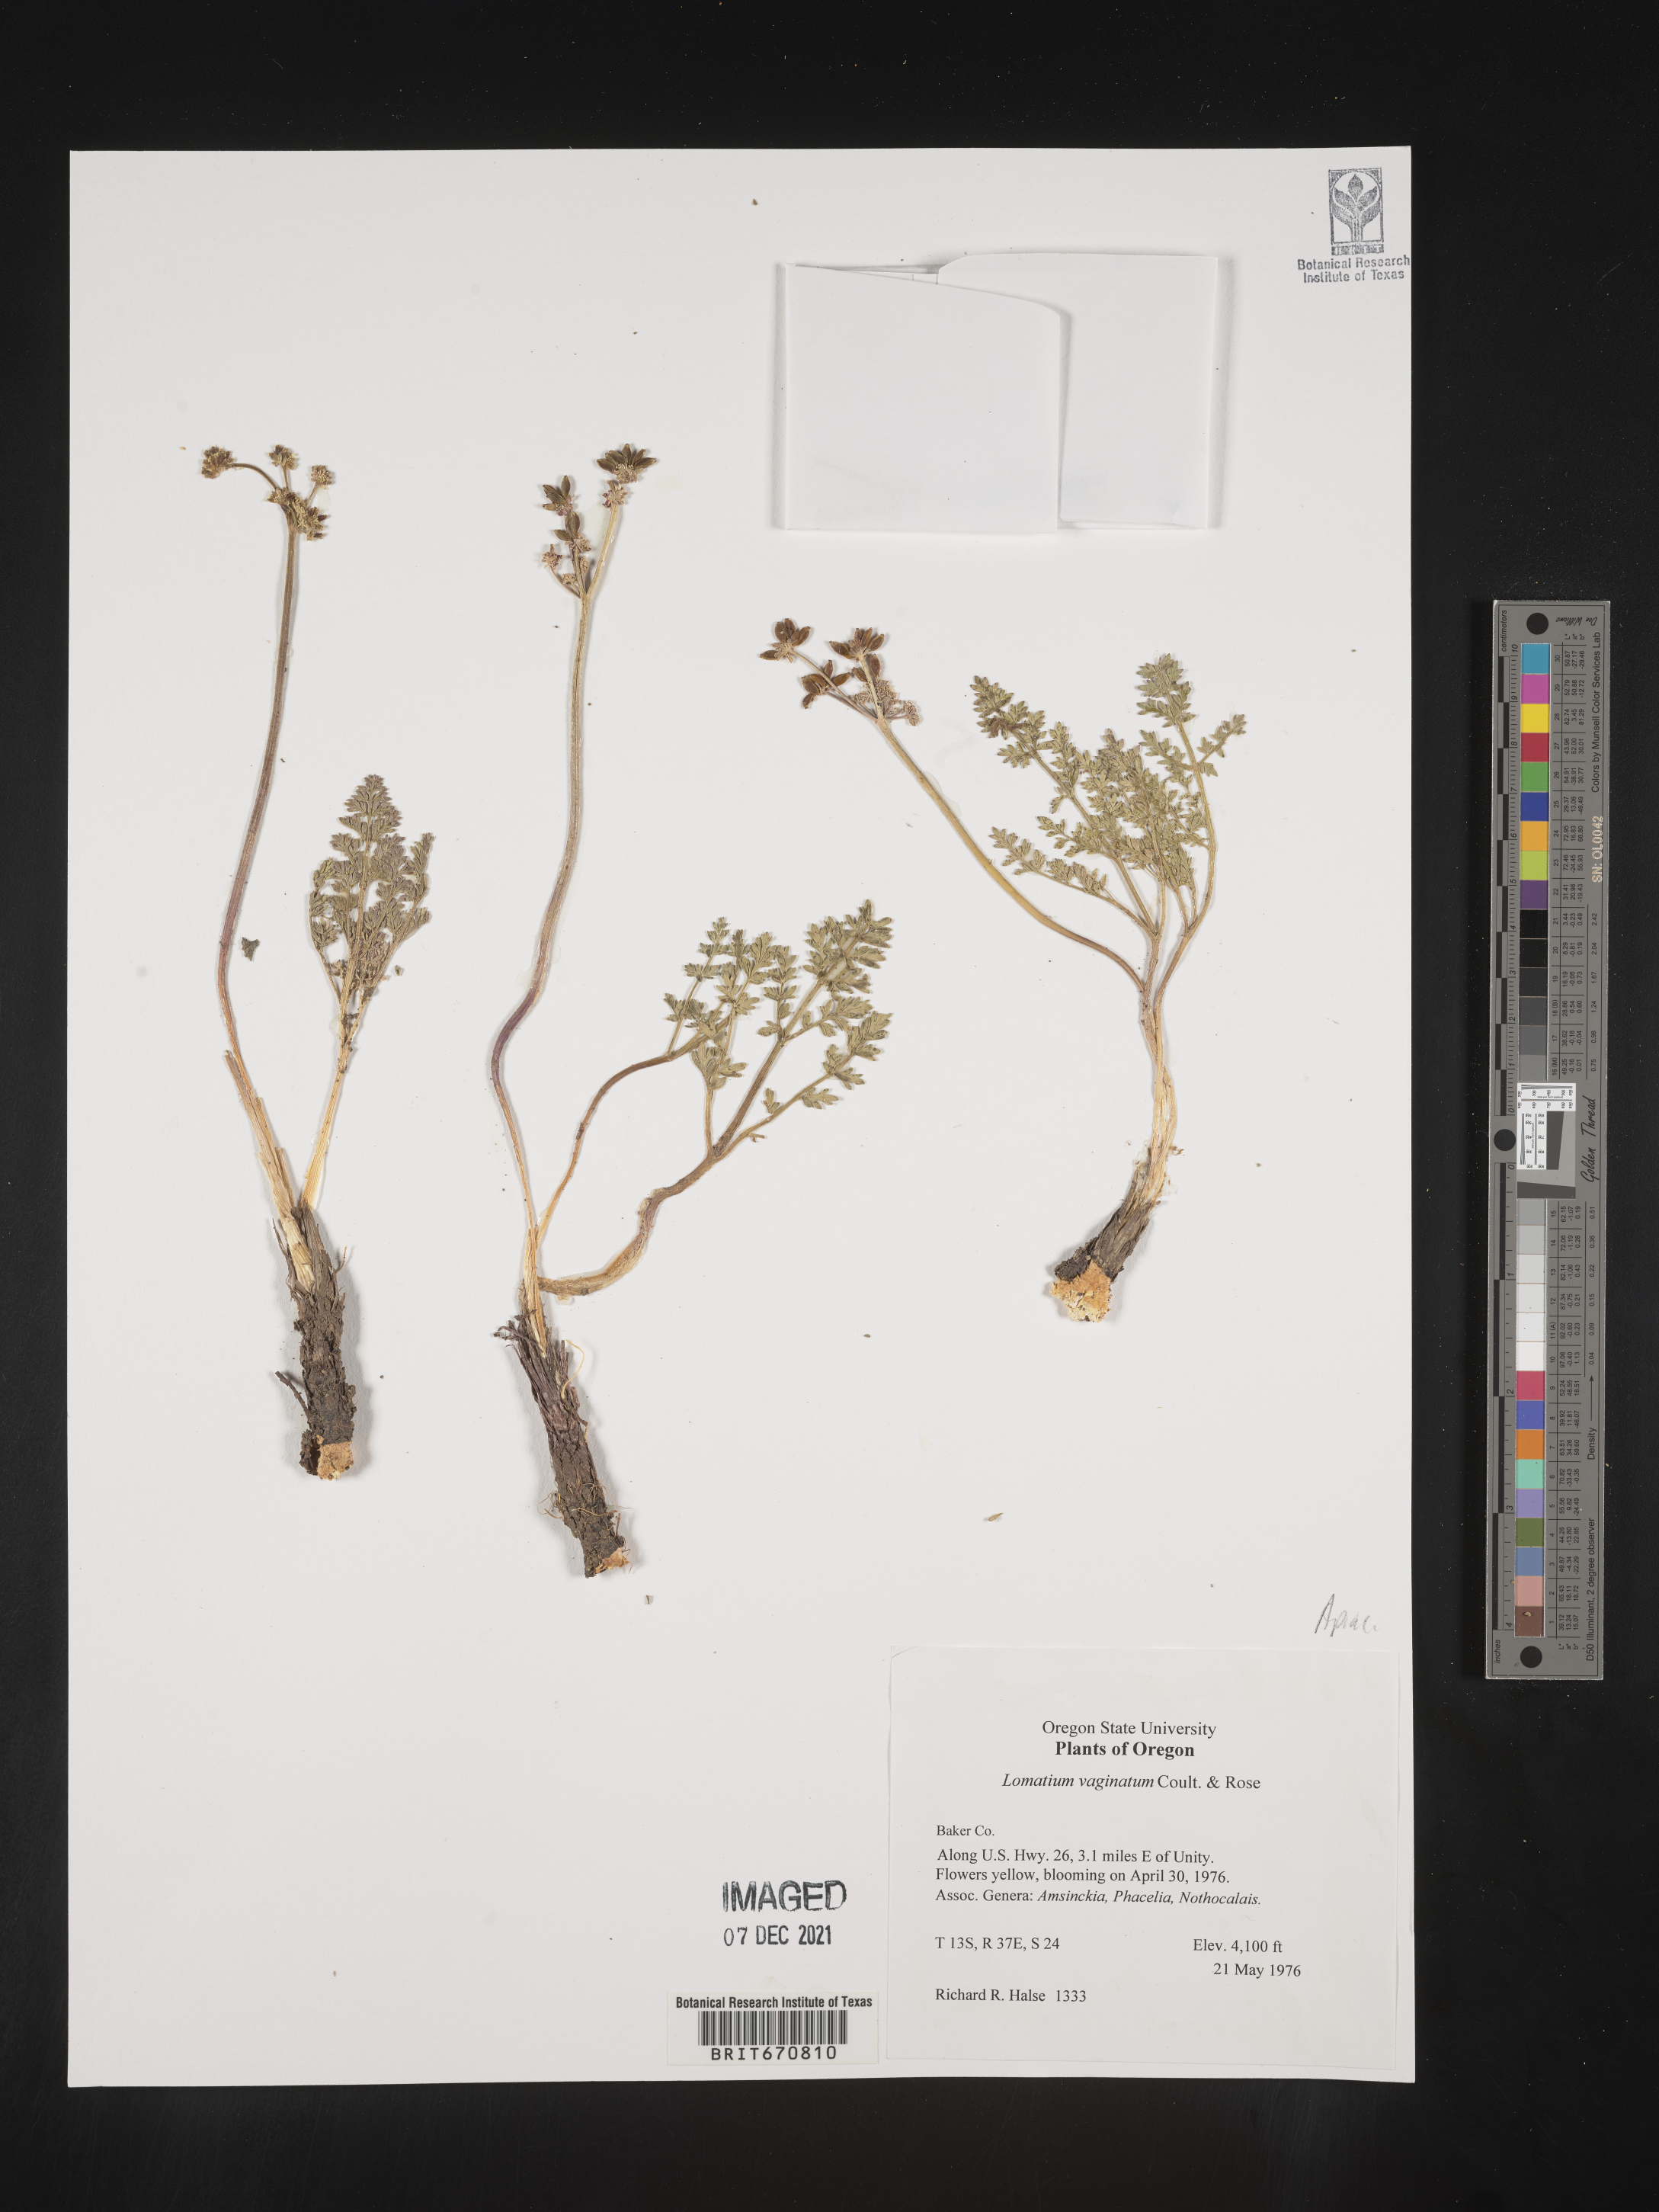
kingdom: Plantae
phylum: Tracheophyta
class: Magnoliopsida
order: Apiales
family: Apiaceae
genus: Lomatium
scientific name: Lomatium vaginatum
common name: Broadsheath desert-parsley
